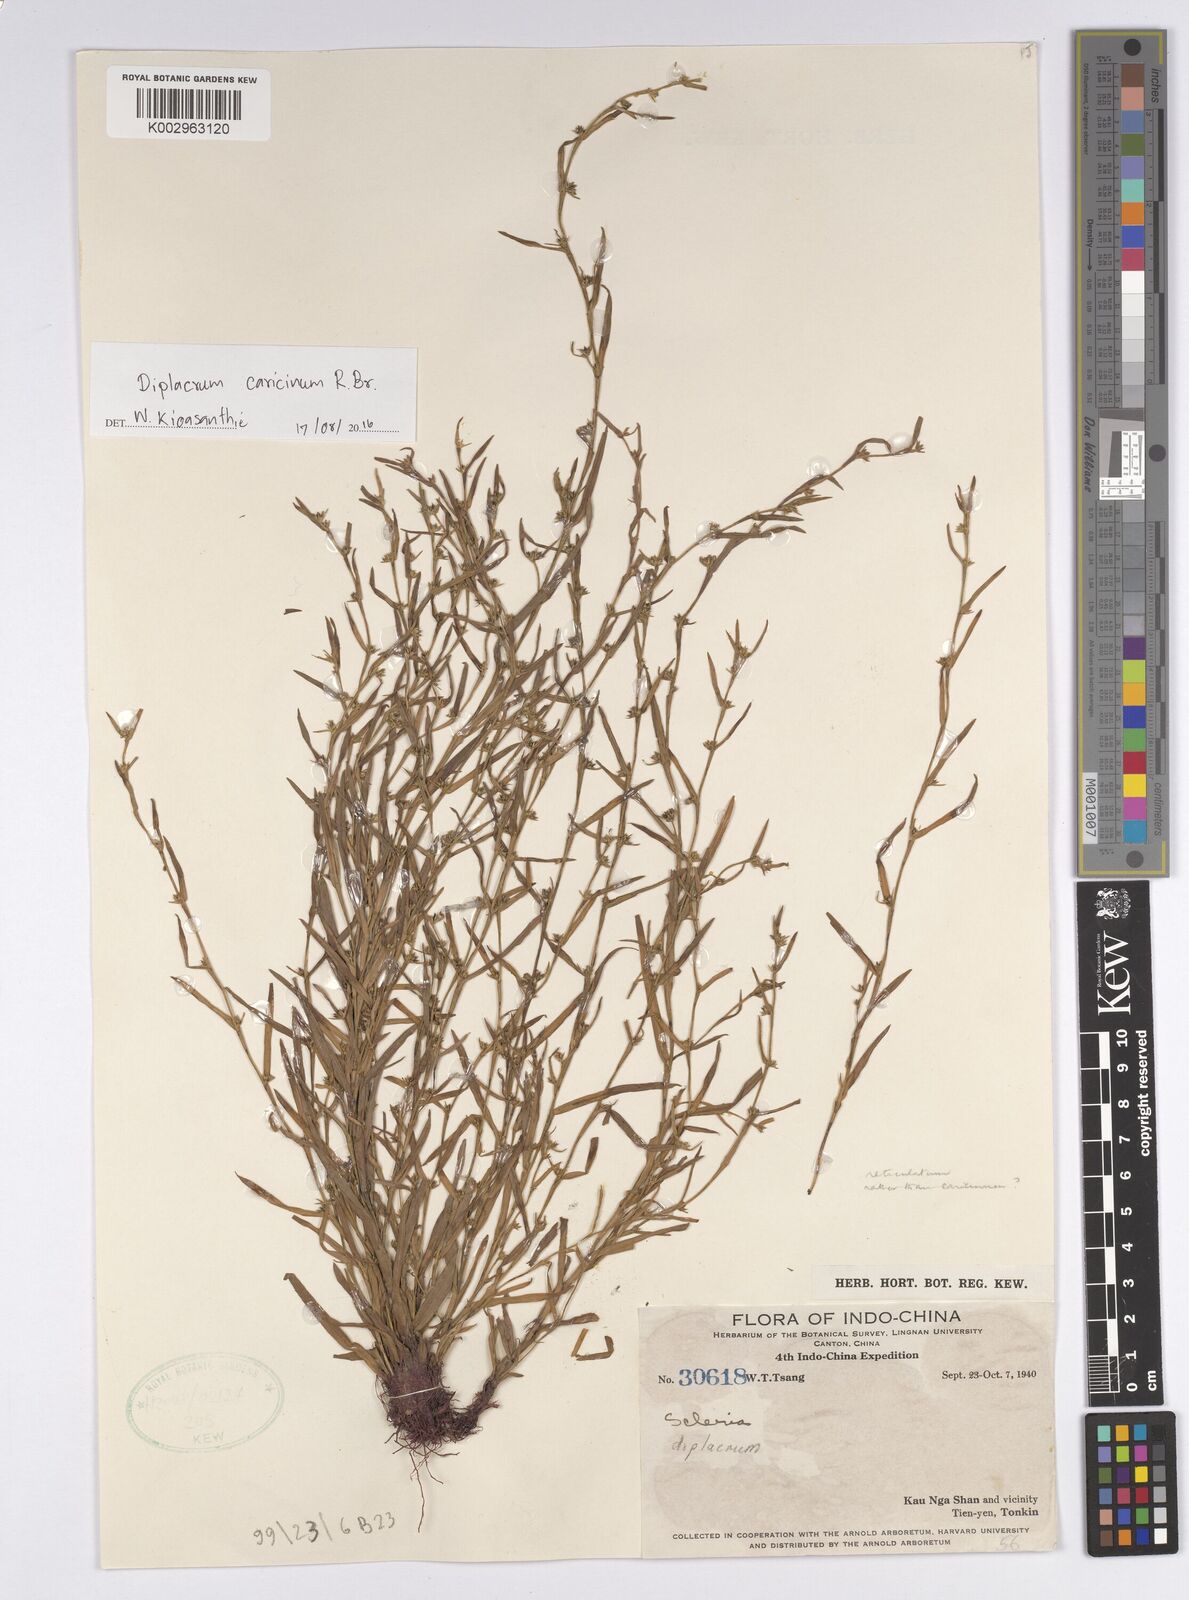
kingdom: Plantae
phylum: Tracheophyta
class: Liliopsida
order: Poales
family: Cyperaceae
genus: Diplacrum
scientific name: Diplacrum caricinum
